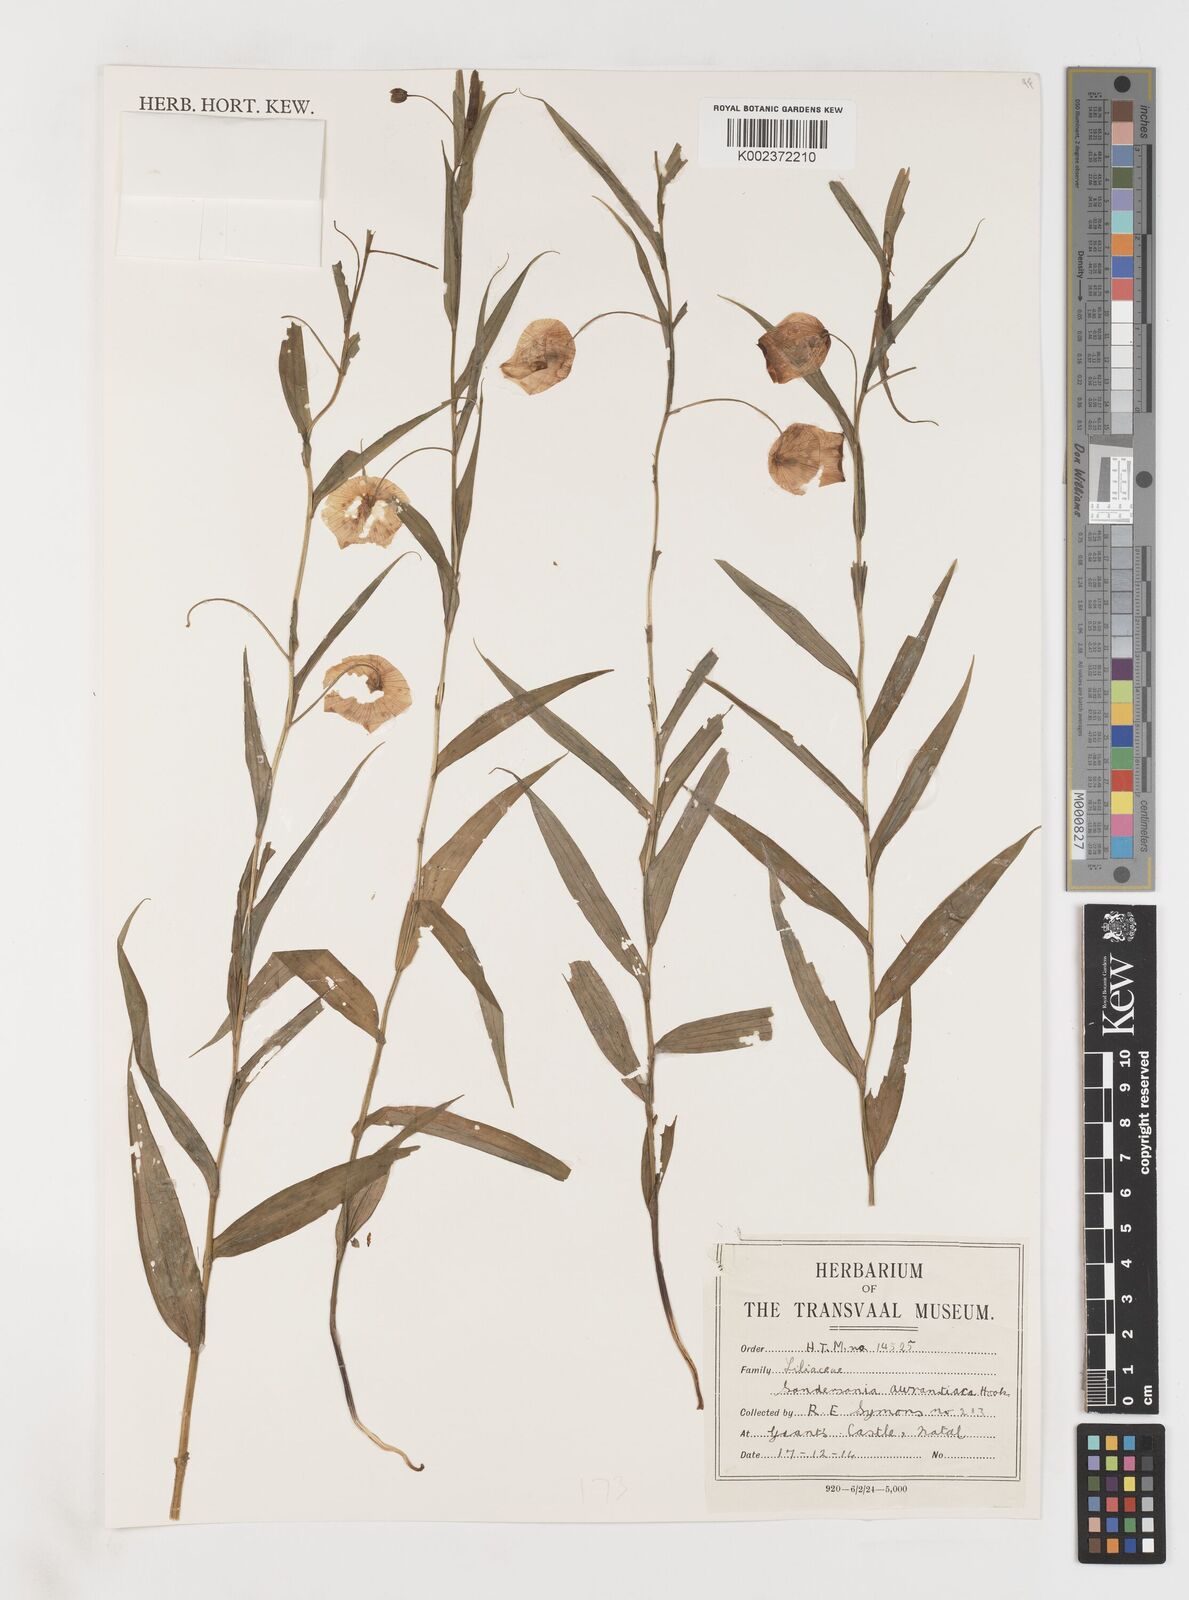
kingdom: Plantae
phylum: Tracheophyta
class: Liliopsida
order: Liliales
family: Colchicaceae
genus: Sandersonia
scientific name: Sandersonia aurantiaca
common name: Chinese-lantern-lily
